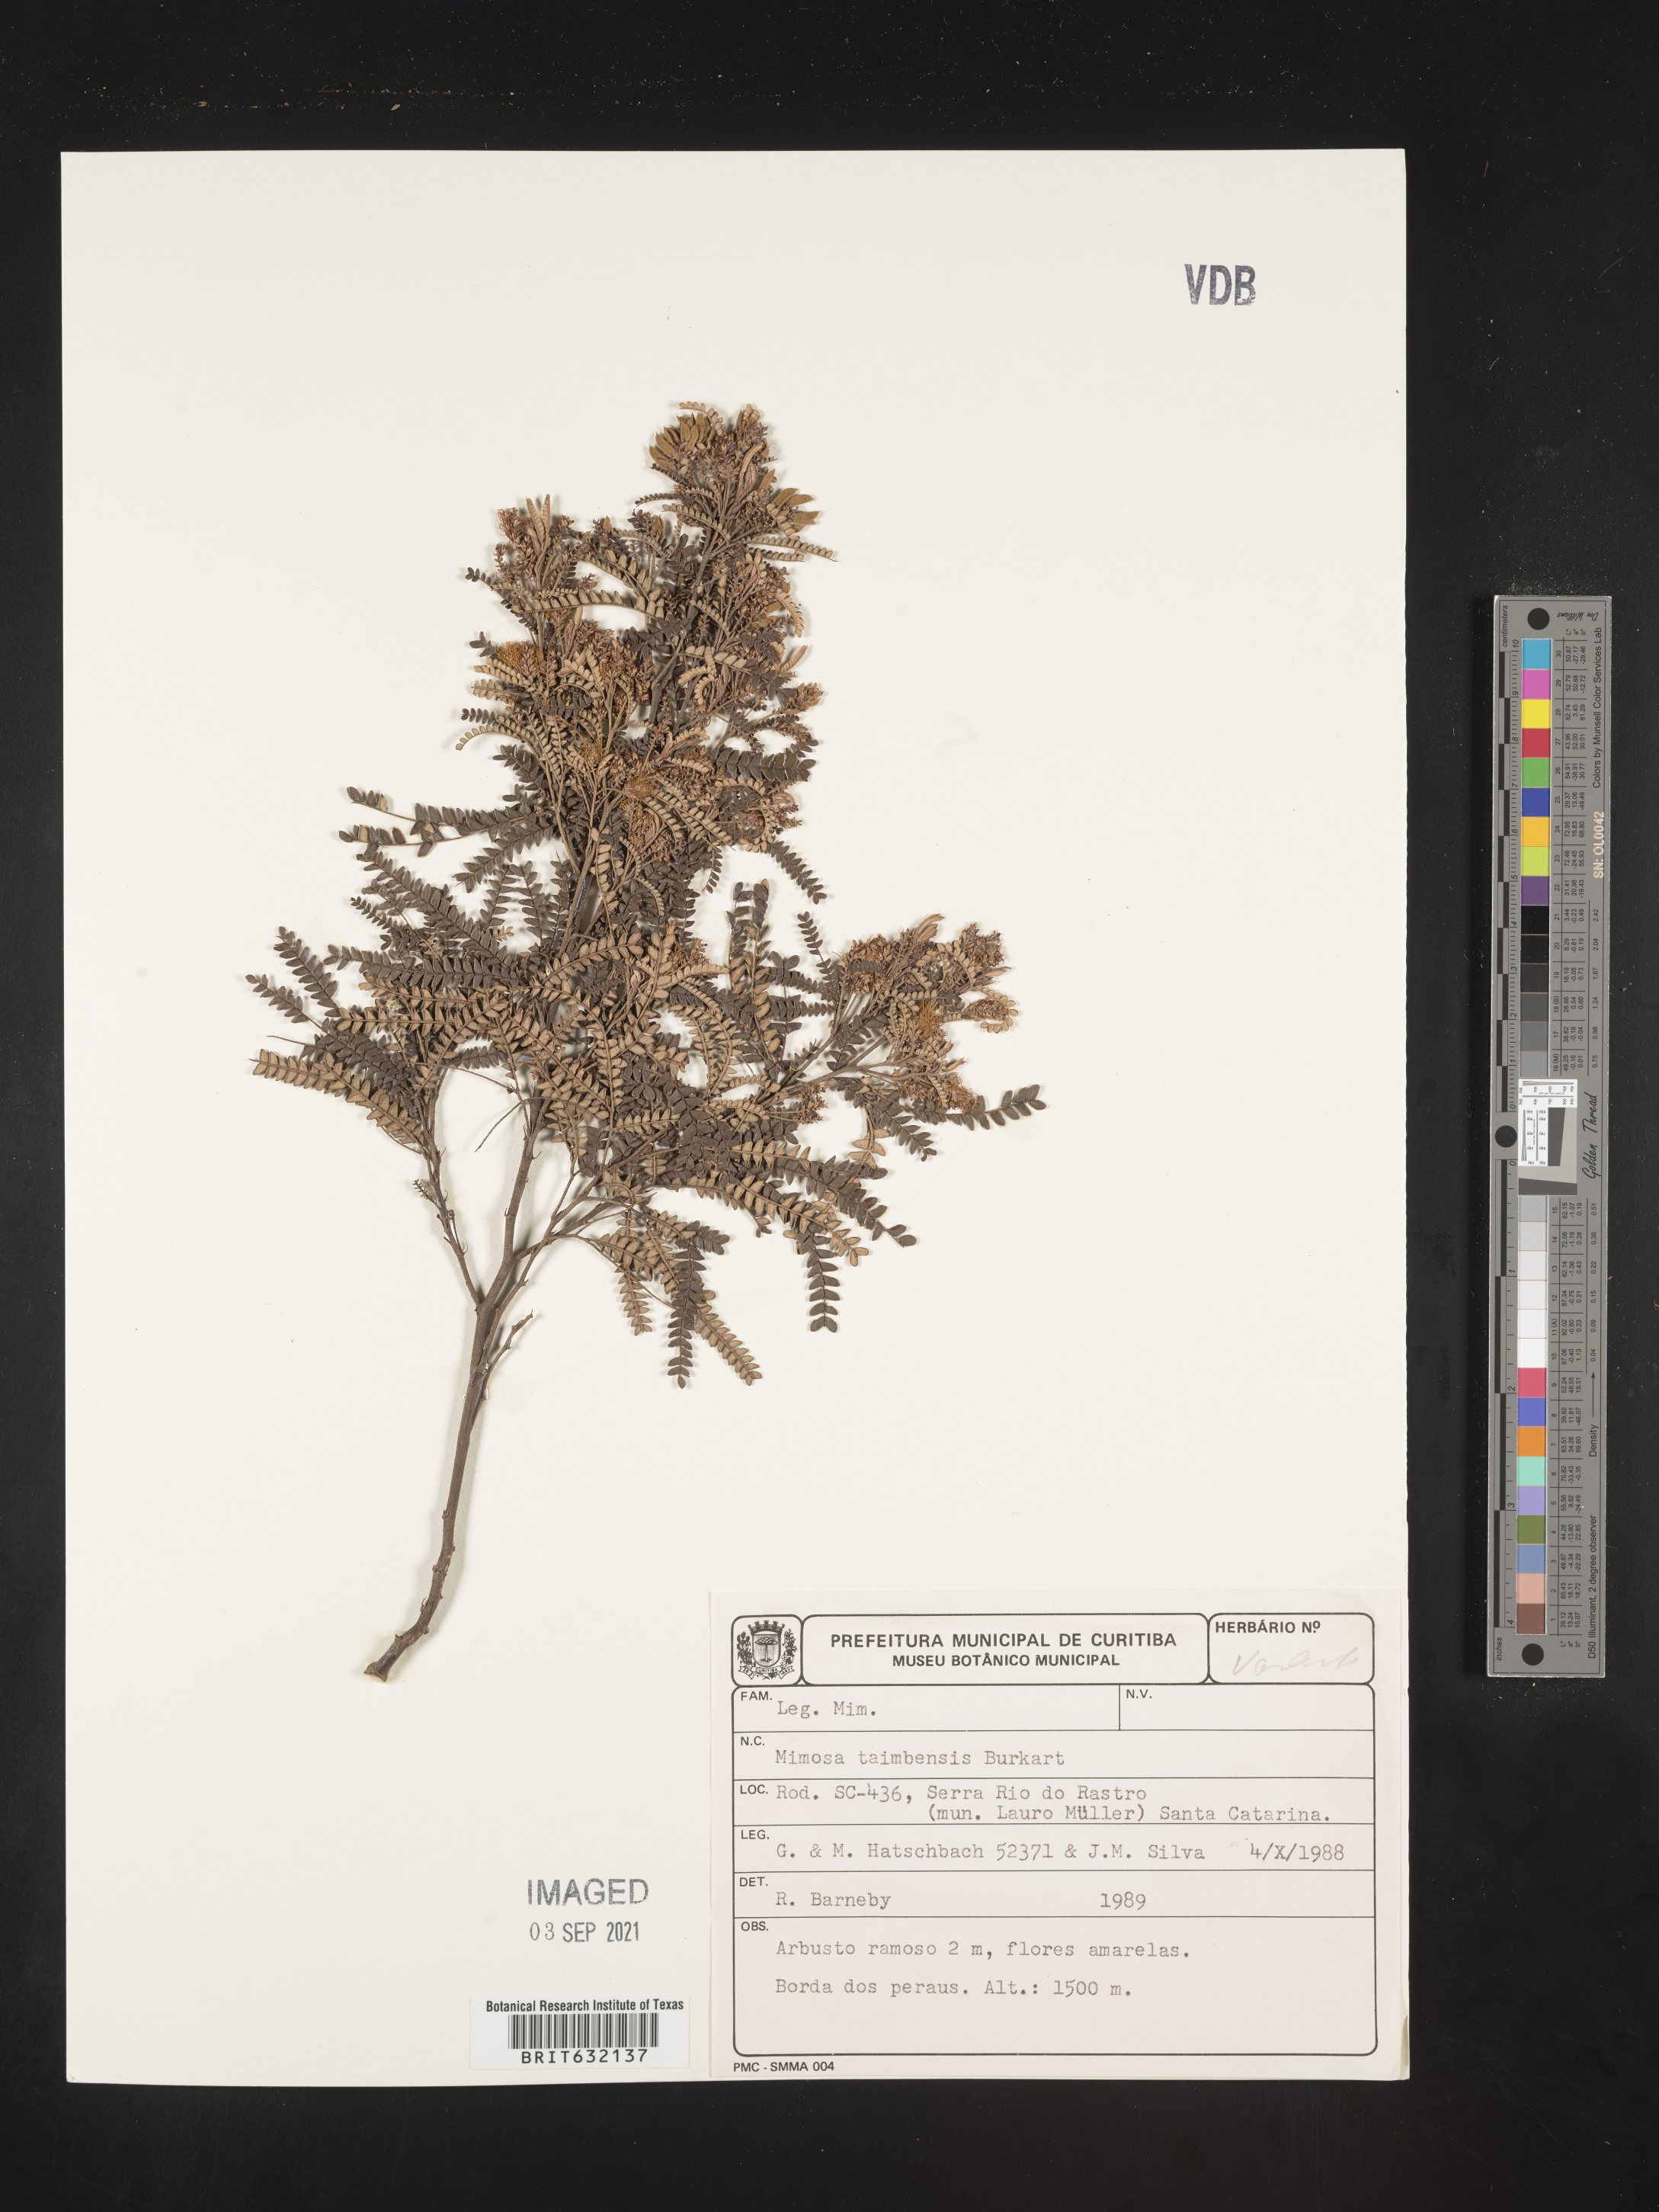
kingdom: Plantae
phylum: Tracheophyta
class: Magnoliopsida
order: Fabales
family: Fabaceae
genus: Mimosa
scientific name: Mimosa
